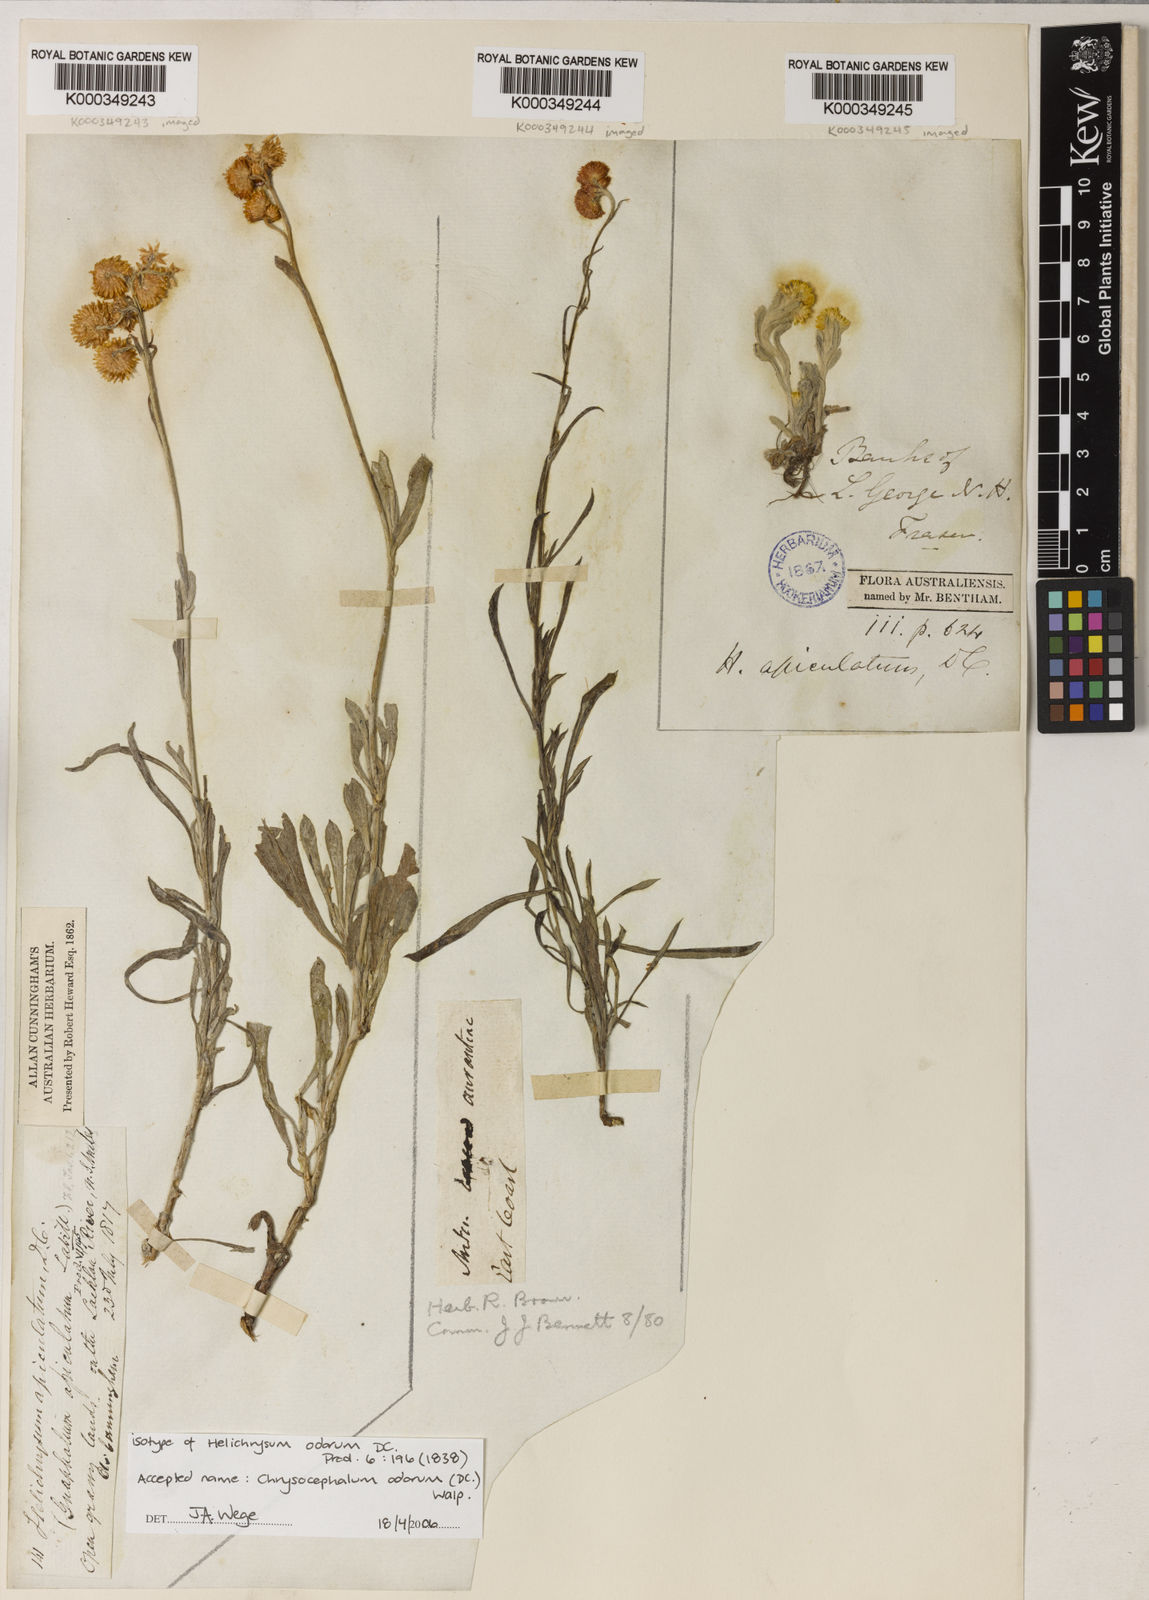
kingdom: Plantae
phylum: Tracheophyta
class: Magnoliopsida
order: Asterales
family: Asteraceae
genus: Chrysocephalum
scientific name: Chrysocephalum apiculatum
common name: Common everlasting
